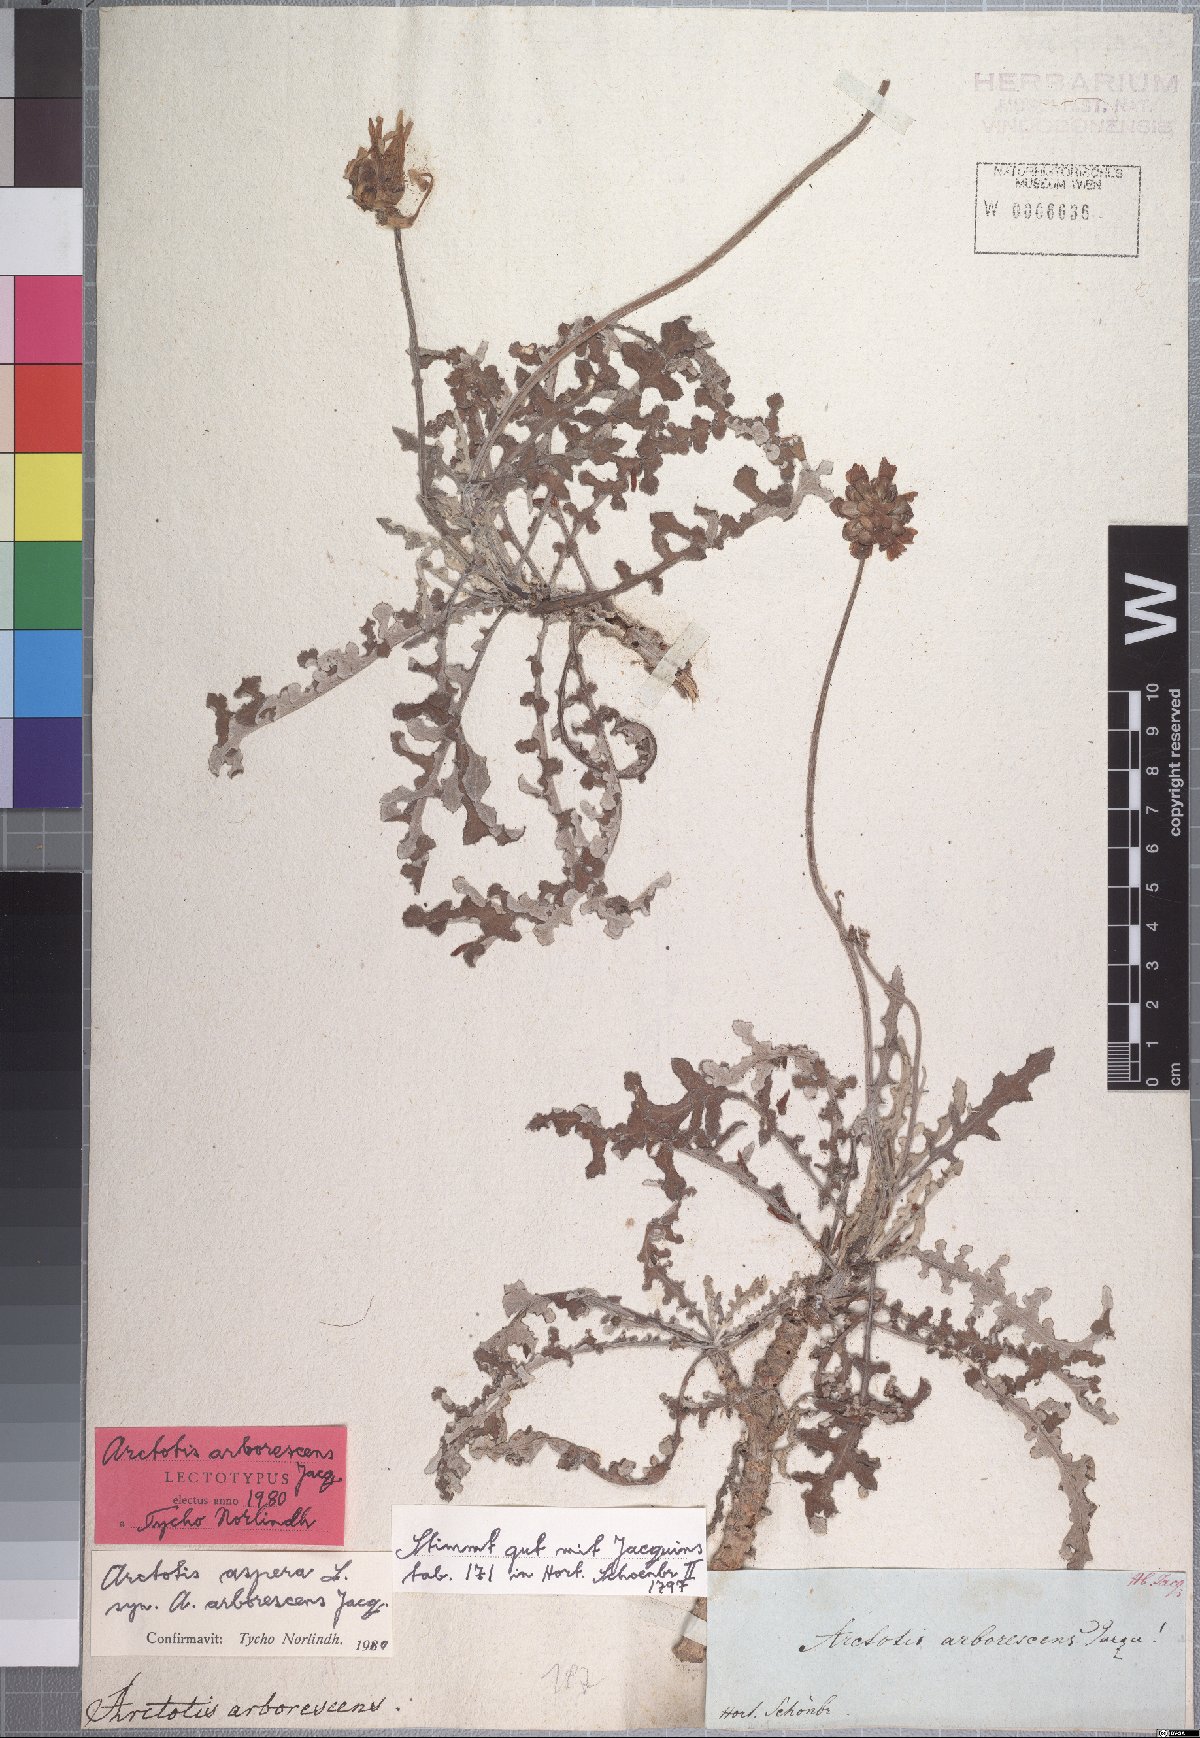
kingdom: Plantae
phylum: Tracheophyta
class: Magnoliopsida
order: Asterales
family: Asteraceae
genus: Arctotis
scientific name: Arctotis aspera
